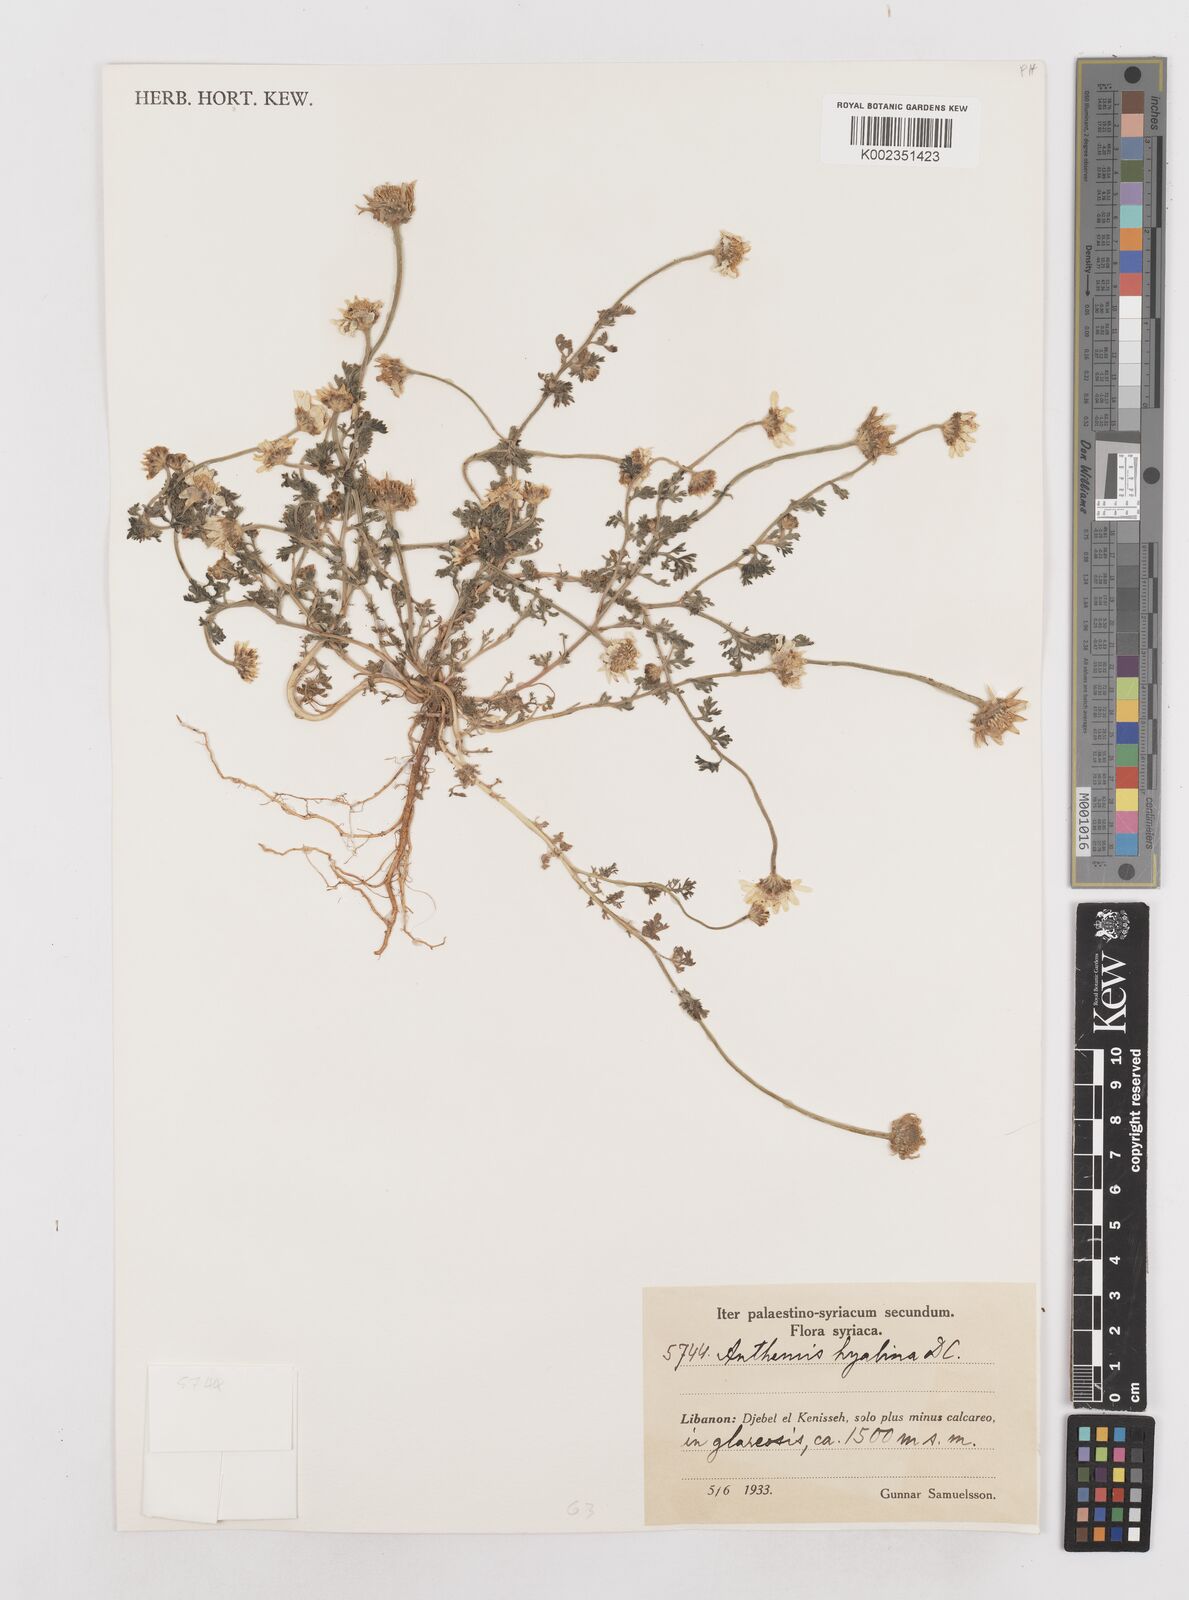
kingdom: Plantae
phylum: Tracheophyta
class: Magnoliopsida
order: Asterales
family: Asteraceae
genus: Anthemis
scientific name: Anthemis hyalina
